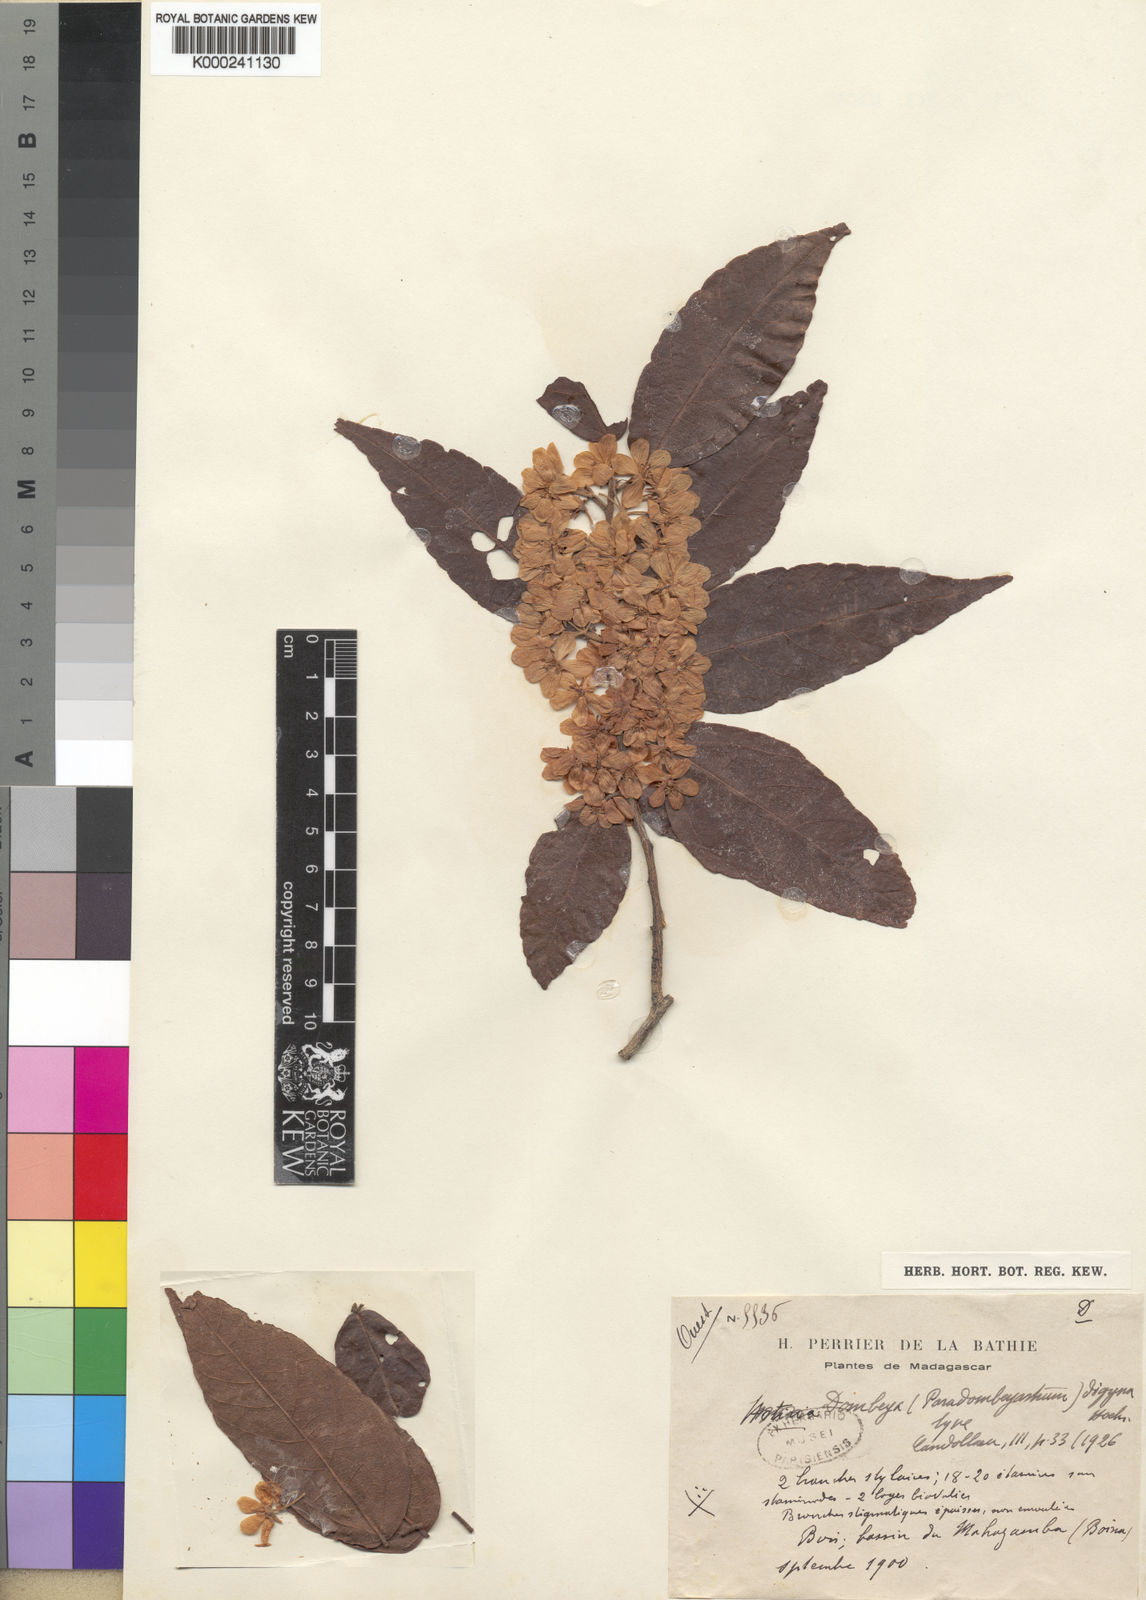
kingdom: Plantae
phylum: Tracheophyta
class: Magnoliopsida
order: Malvales
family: Malvaceae
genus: Dombeya
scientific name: Dombeya digyna
